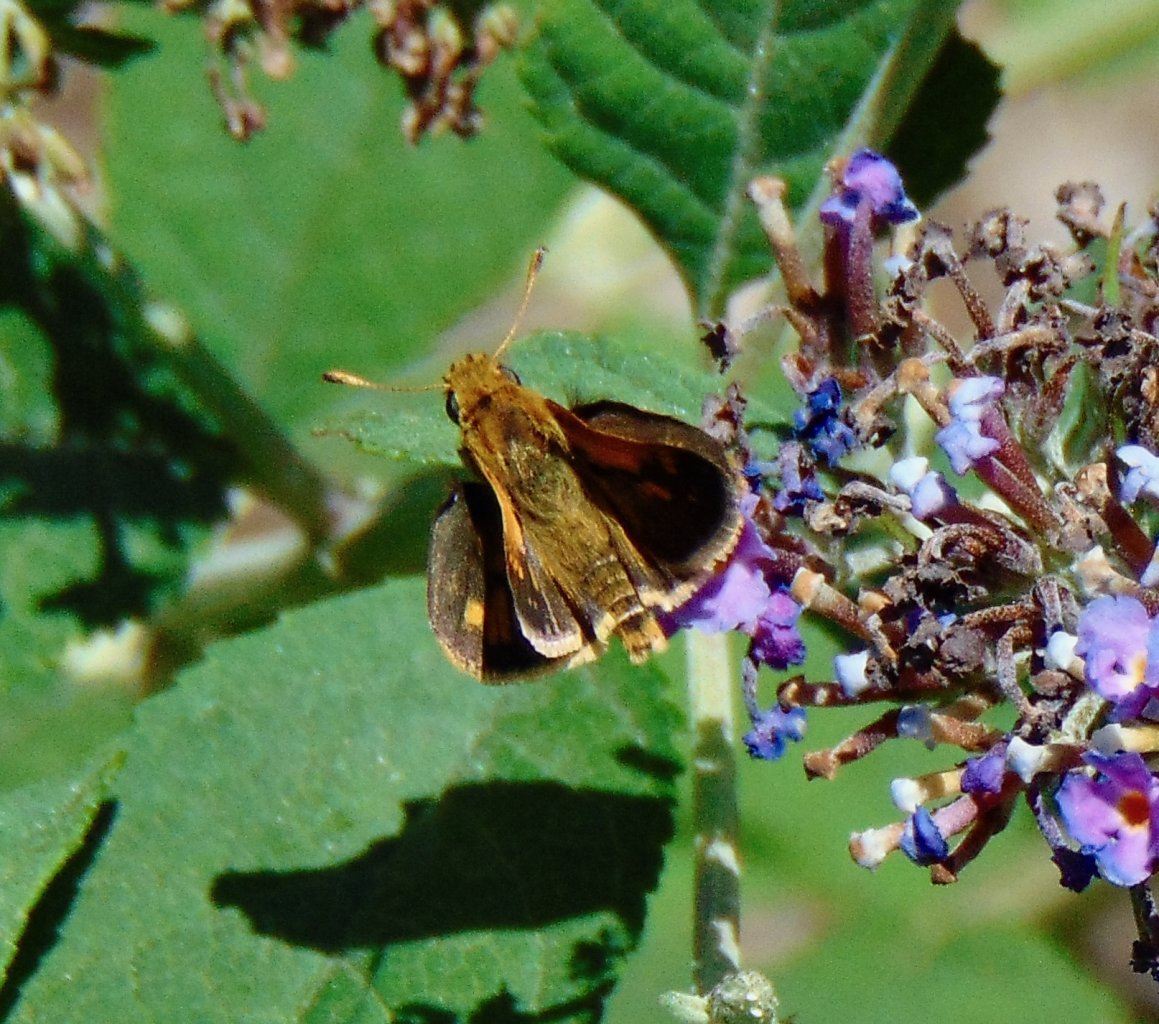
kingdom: Animalia
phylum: Arthropoda
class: Insecta
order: Lepidoptera
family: Hesperiidae
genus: Polites
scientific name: Polites coras
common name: Peck's Skipper
